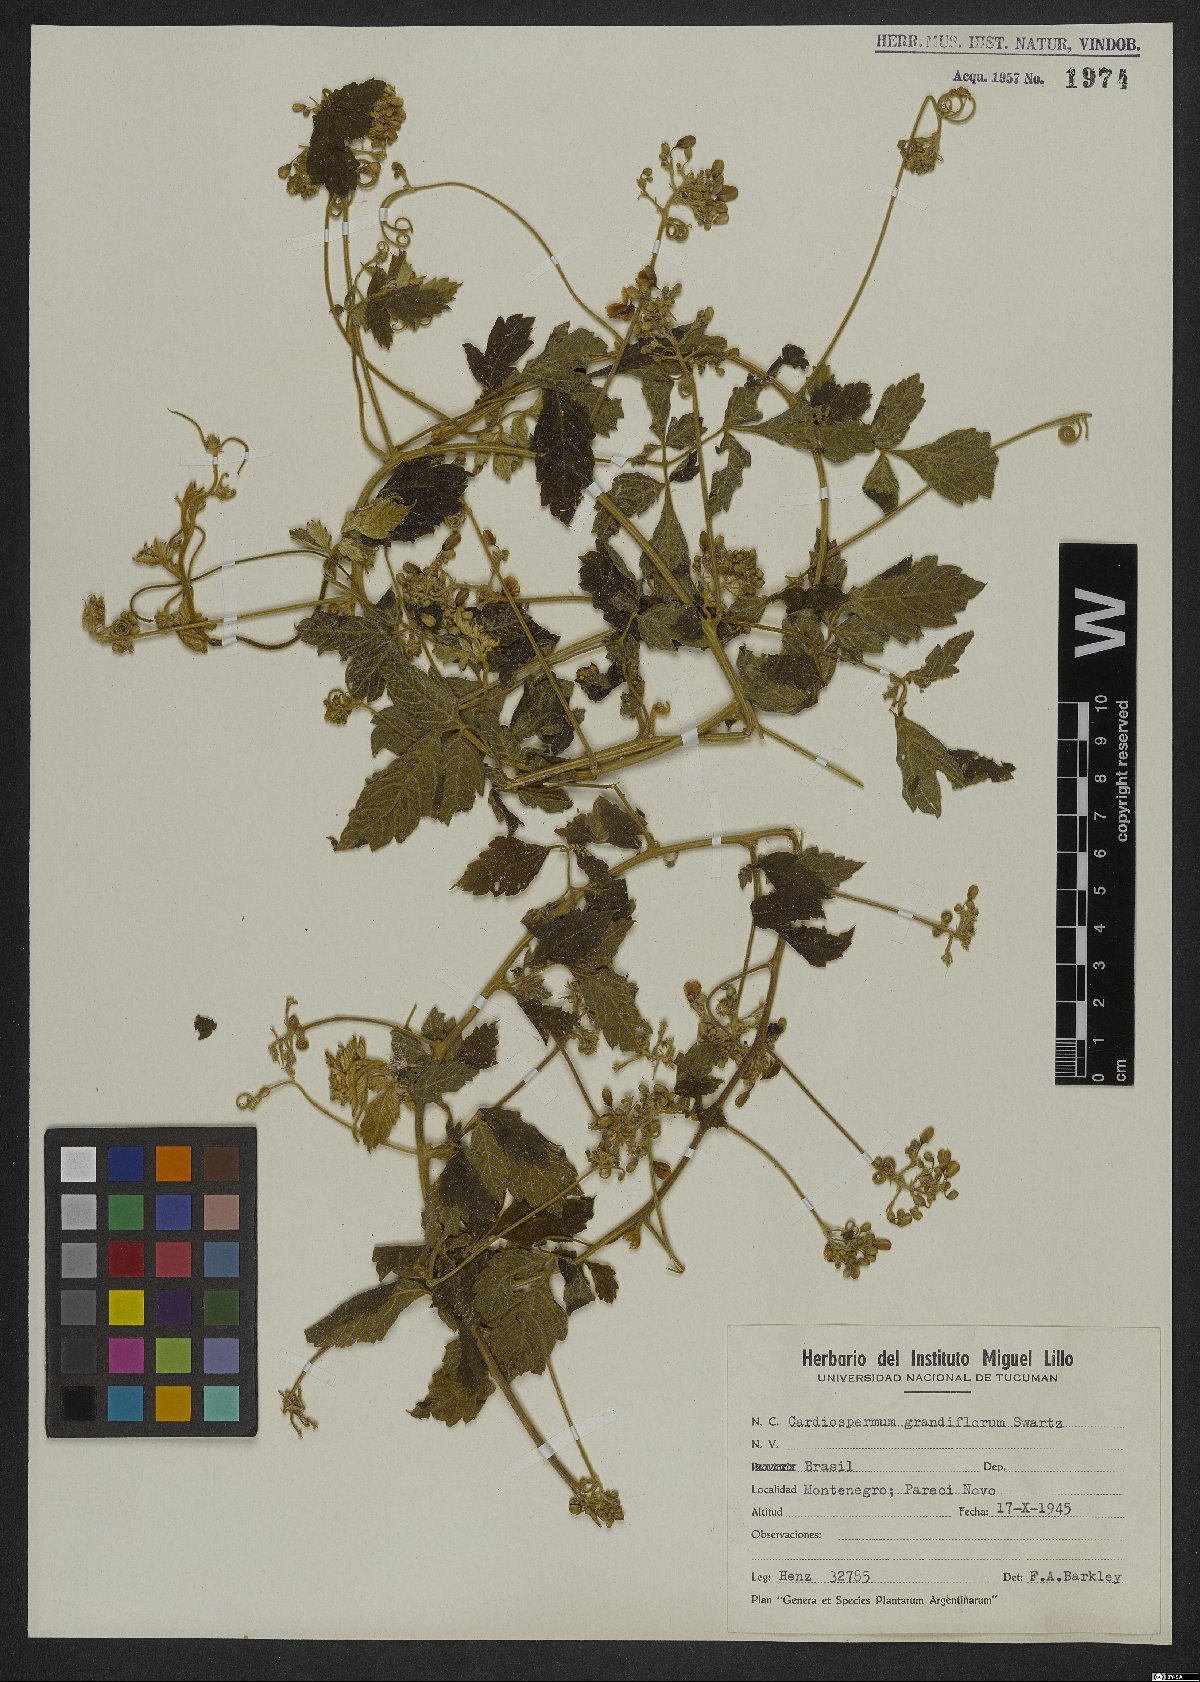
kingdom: Plantae
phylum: Tracheophyta
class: Magnoliopsida
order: Sapindales
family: Sapindaceae
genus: Cardiospermum
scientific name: Cardiospermum grandiflorum
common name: Balloon vine
